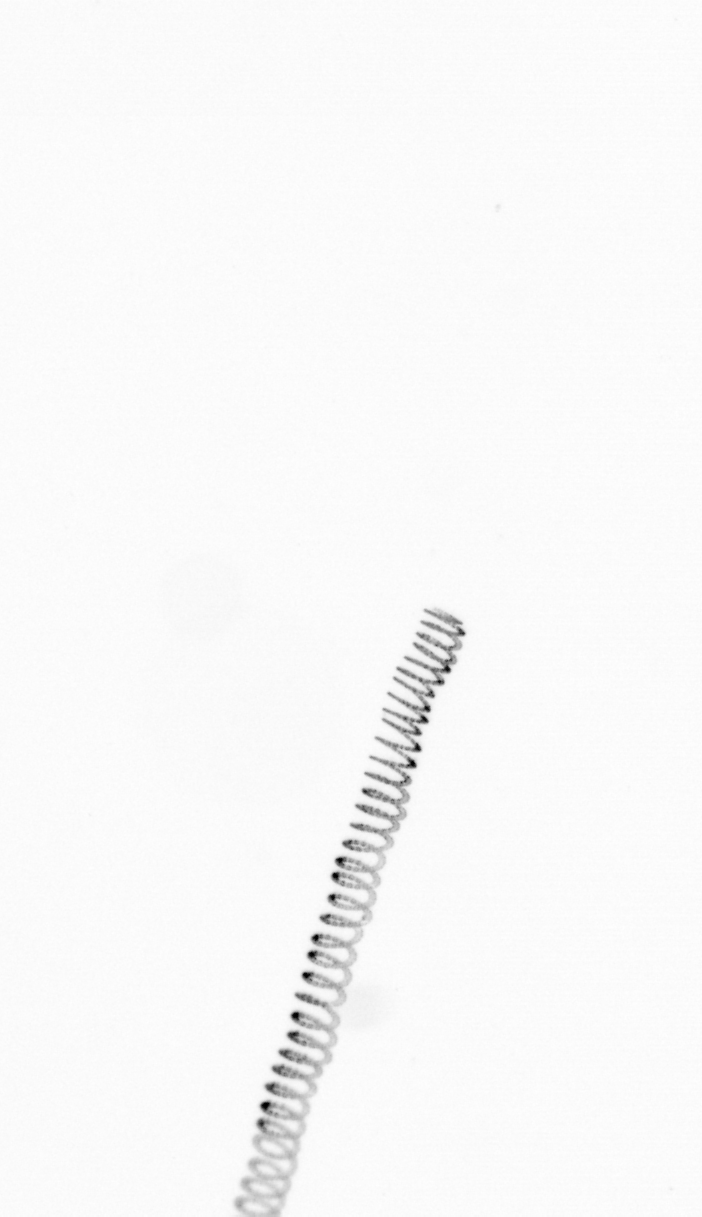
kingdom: Chromista
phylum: Ochrophyta
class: Bacillariophyceae
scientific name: Bacillariophyceae
